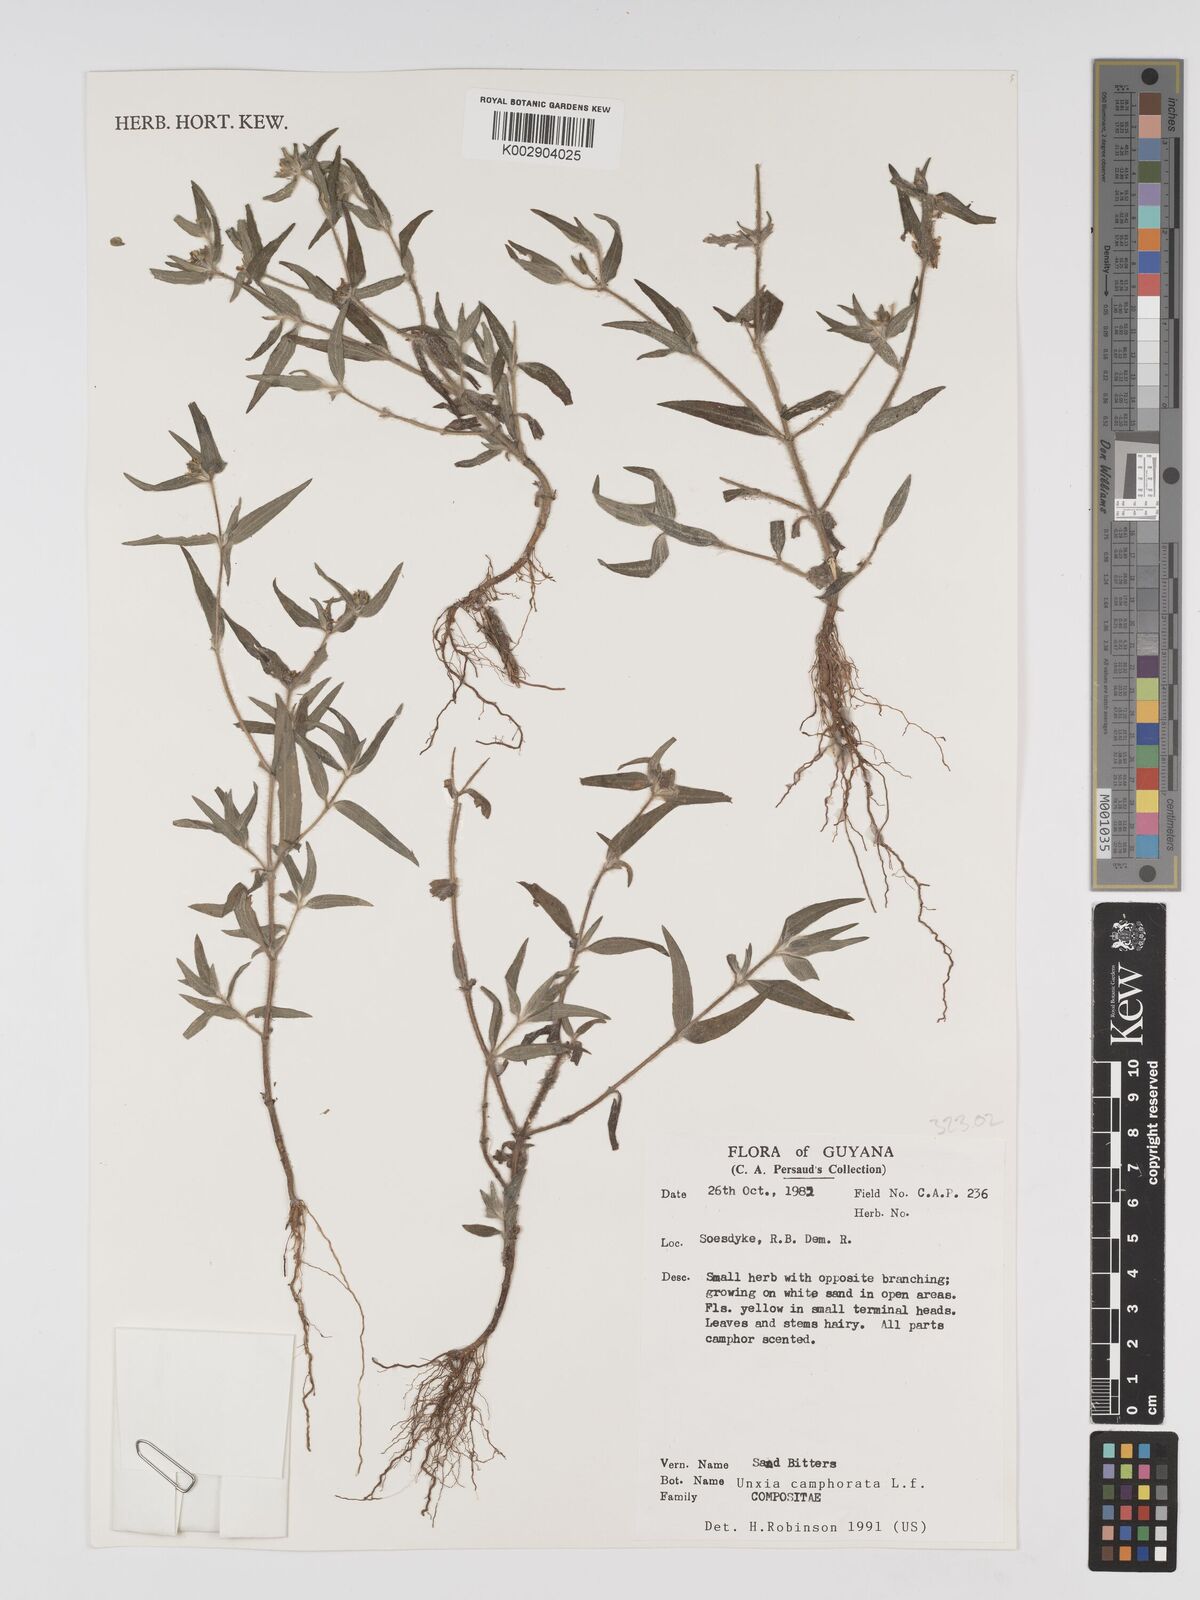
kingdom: Plantae
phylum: Tracheophyta
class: Magnoliopsida
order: Asterales
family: Asteraceae
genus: Unxia
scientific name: Unxia camphorata
